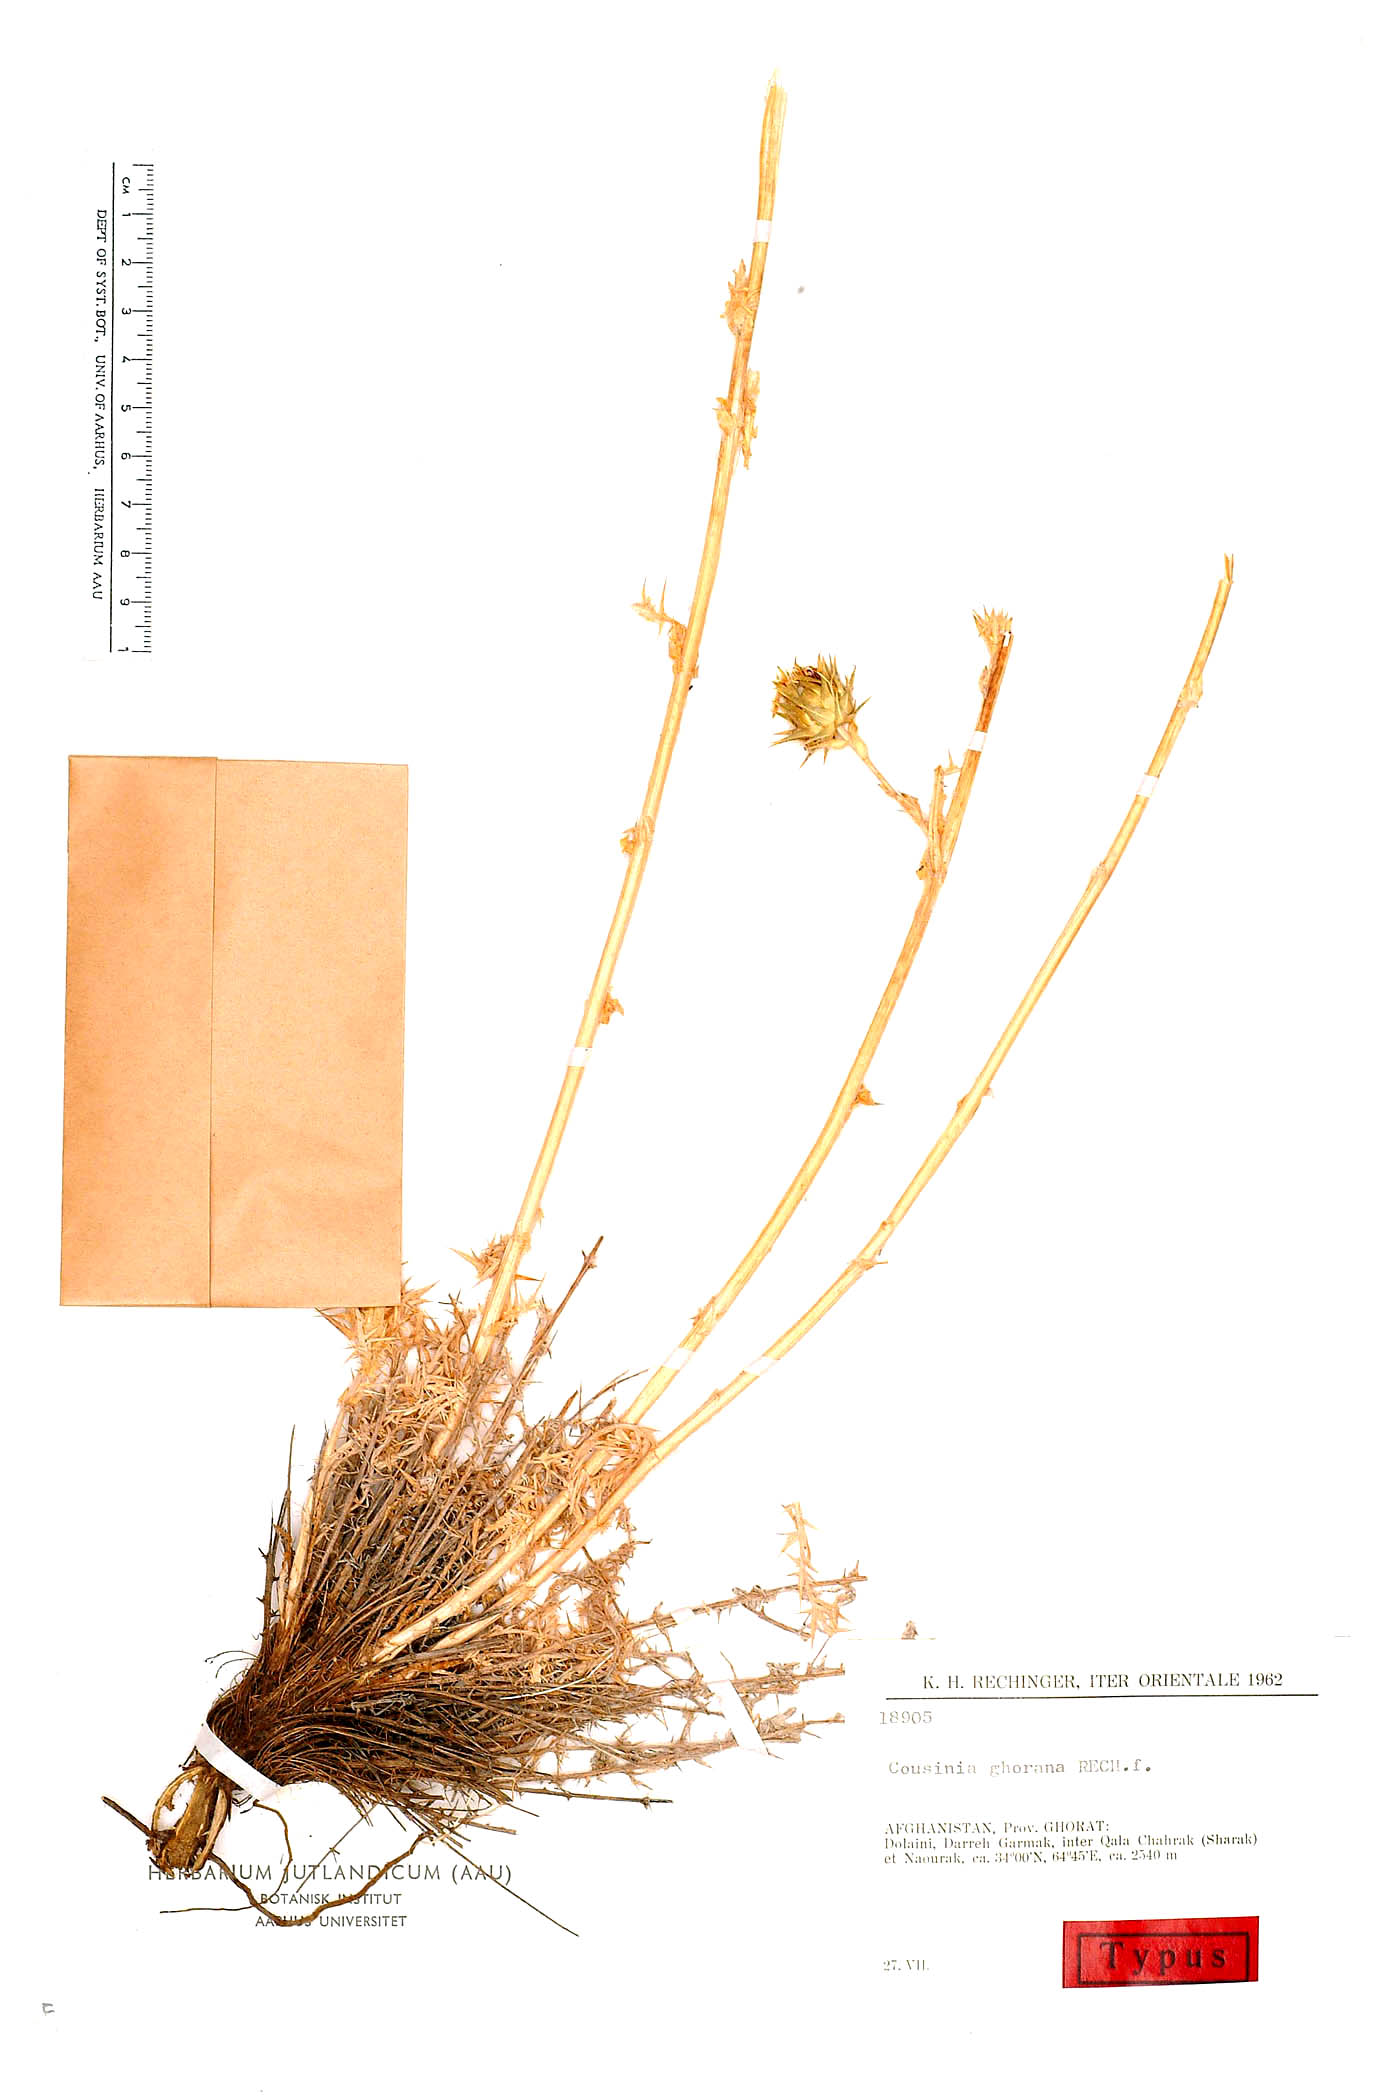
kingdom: Plantae
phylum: Tracheophyta
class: Magnoliopsida
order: Asterales
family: Asteraceae
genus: Cousinia
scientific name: Cousinia ghorana
